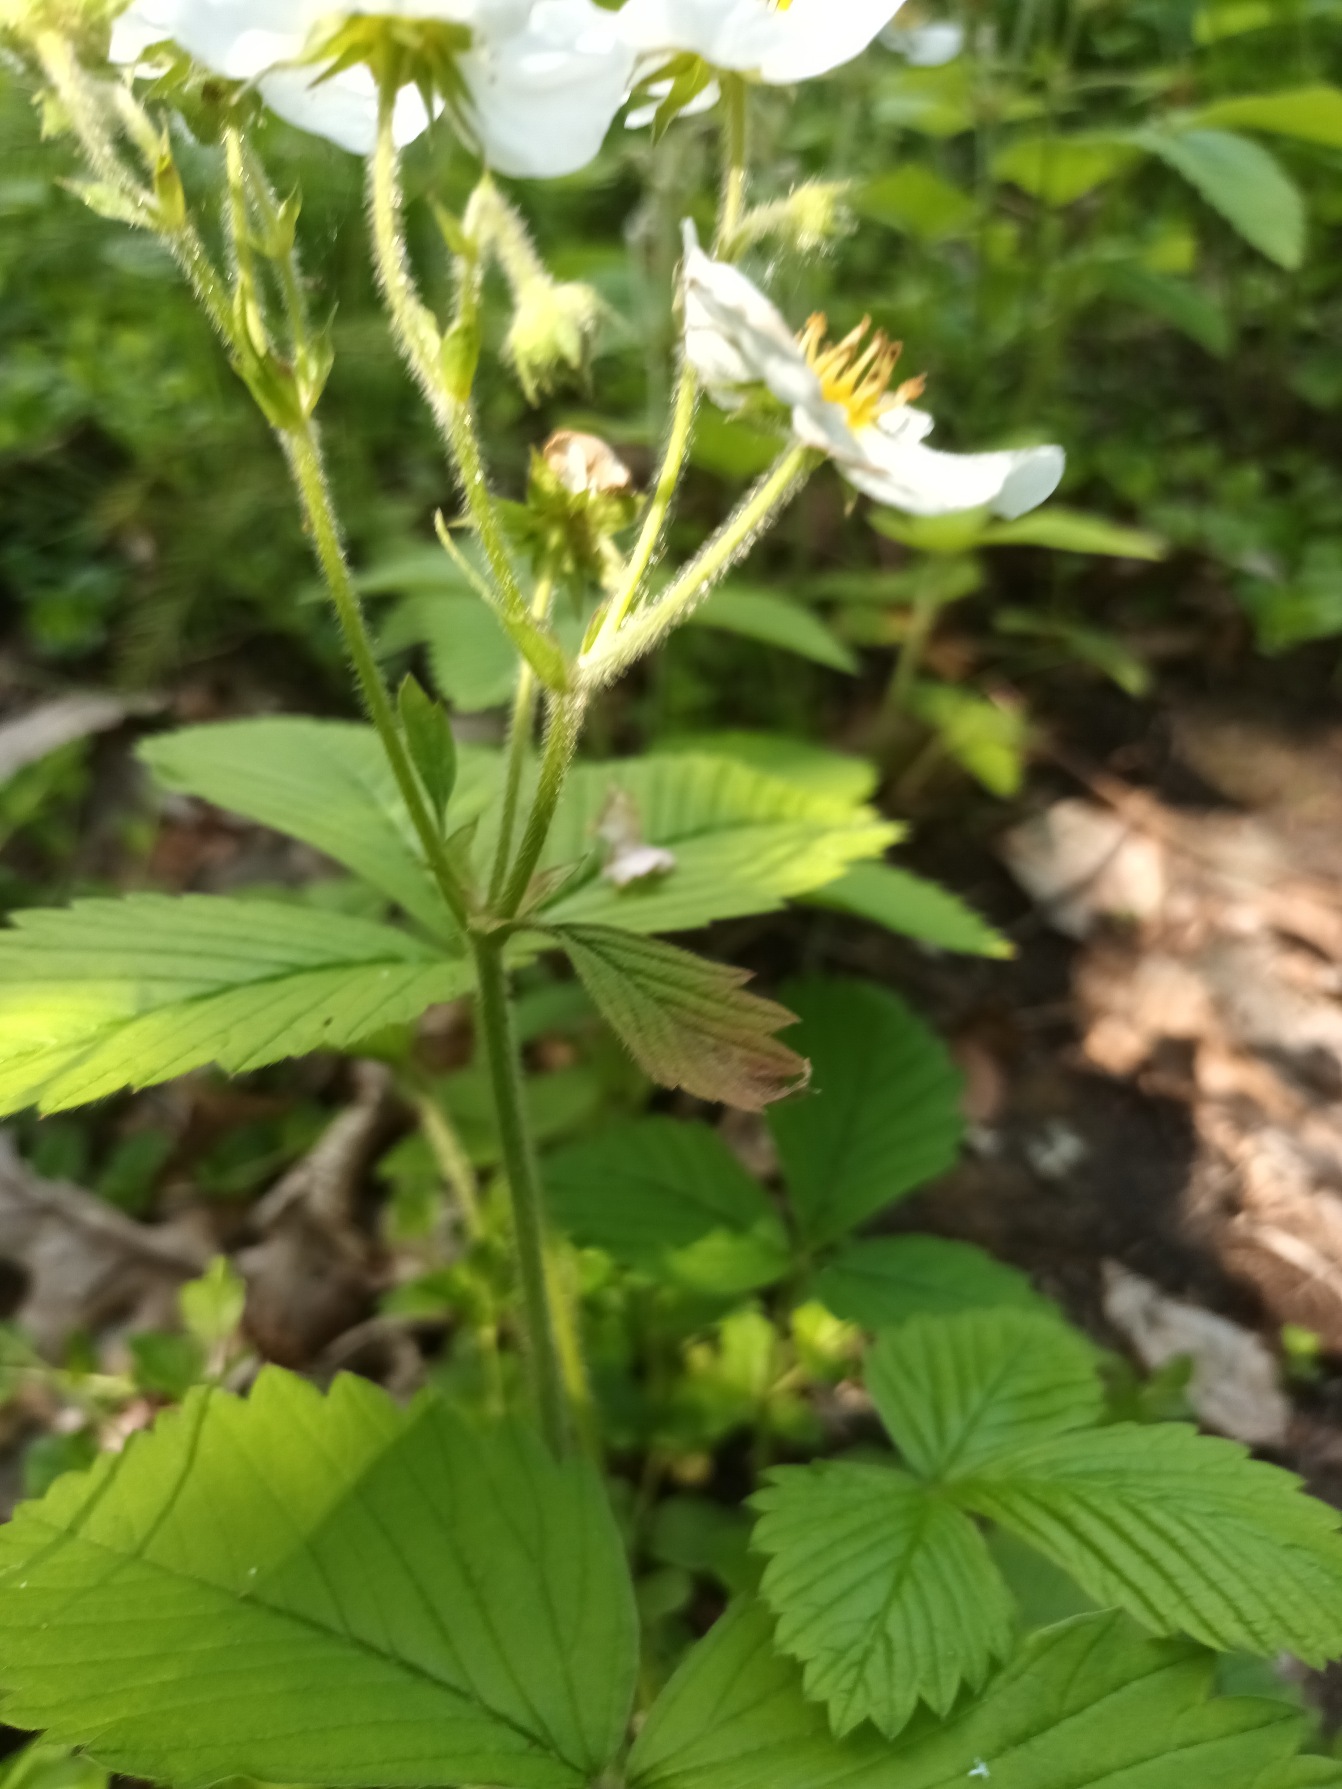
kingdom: Plantae
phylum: Tracheophyta
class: Magnoliopsida
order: Rosales
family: Rosaceae
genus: Fragaria
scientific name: Fragaria moschata
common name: Spansk jordbær
